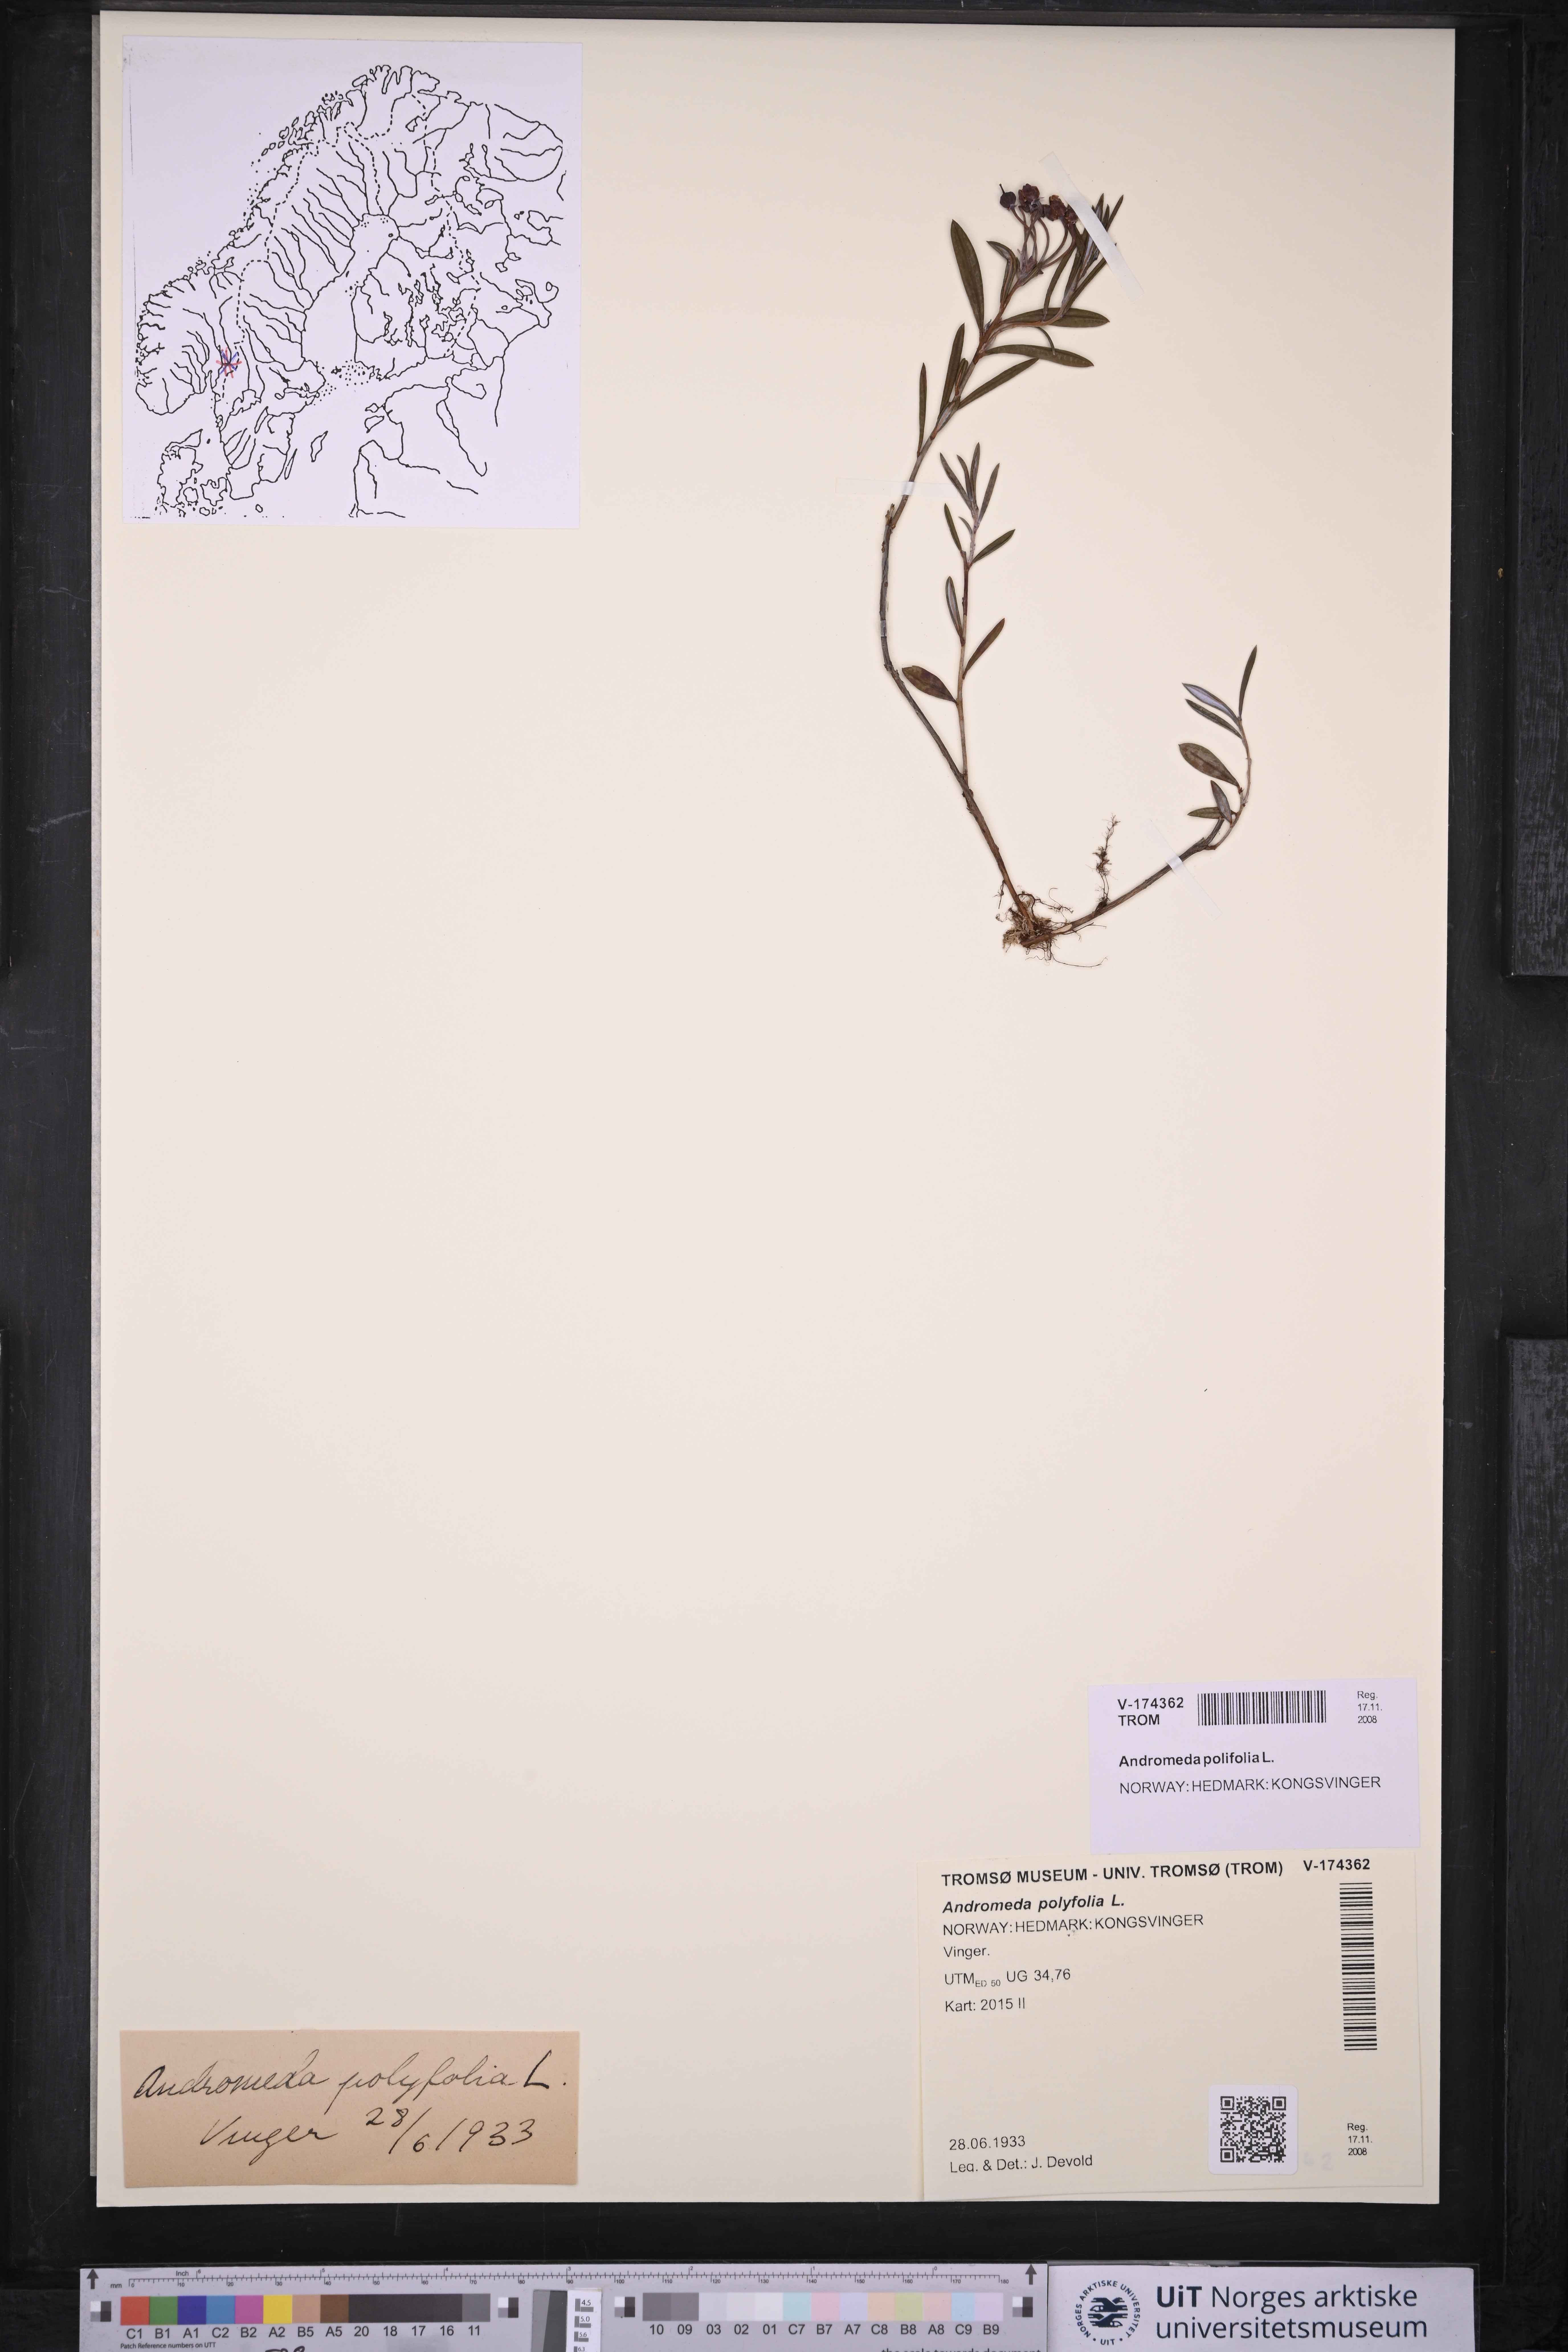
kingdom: Plantae
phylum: Tracheophyta
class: Magnoliopsida
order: Ericales
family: Ericaceae
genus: Andromeda
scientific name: Andromeda polifolia
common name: Bog-rosemary
